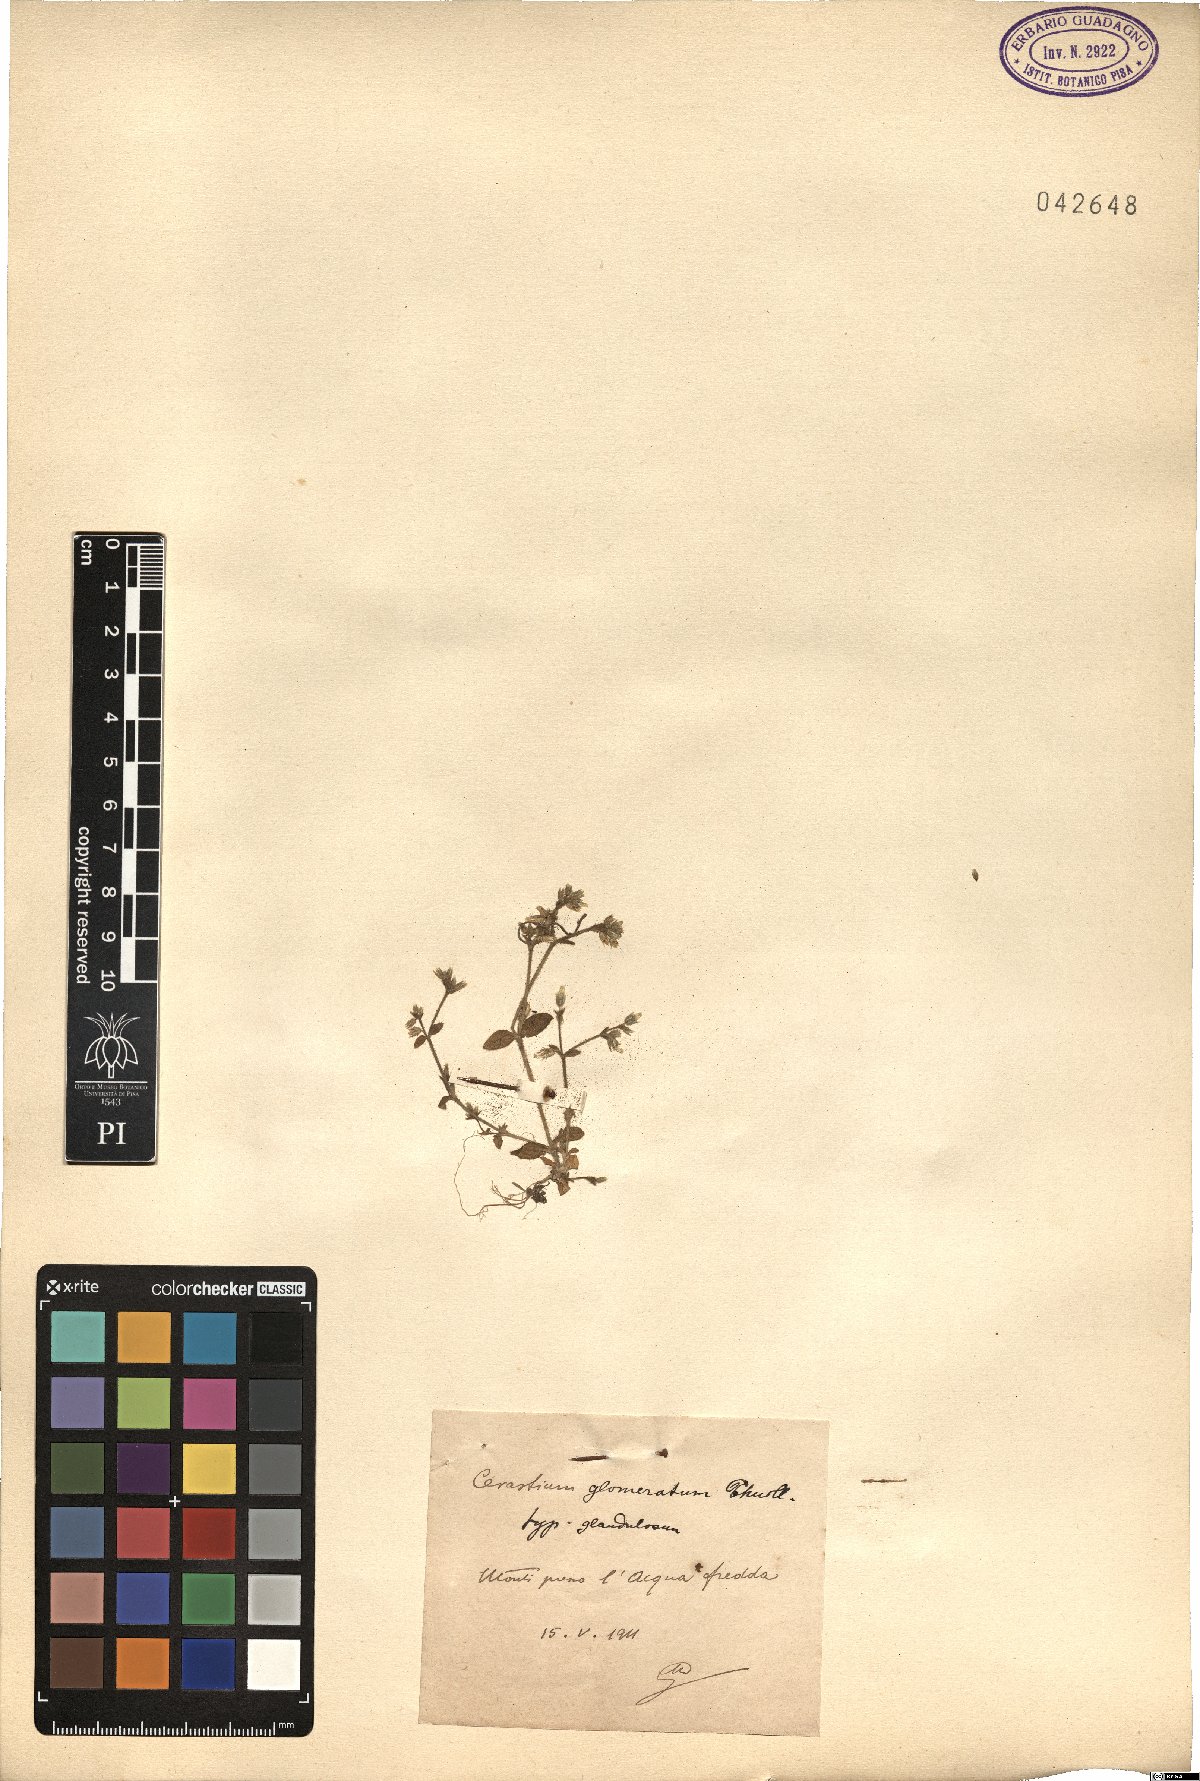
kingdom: Plantae
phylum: Tracheophyta
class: Magnoliopsida
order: Caryophyllales
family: Caryophyllaceae
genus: Cerastium
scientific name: Cerastium glomeratum
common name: Sticky chickweed
